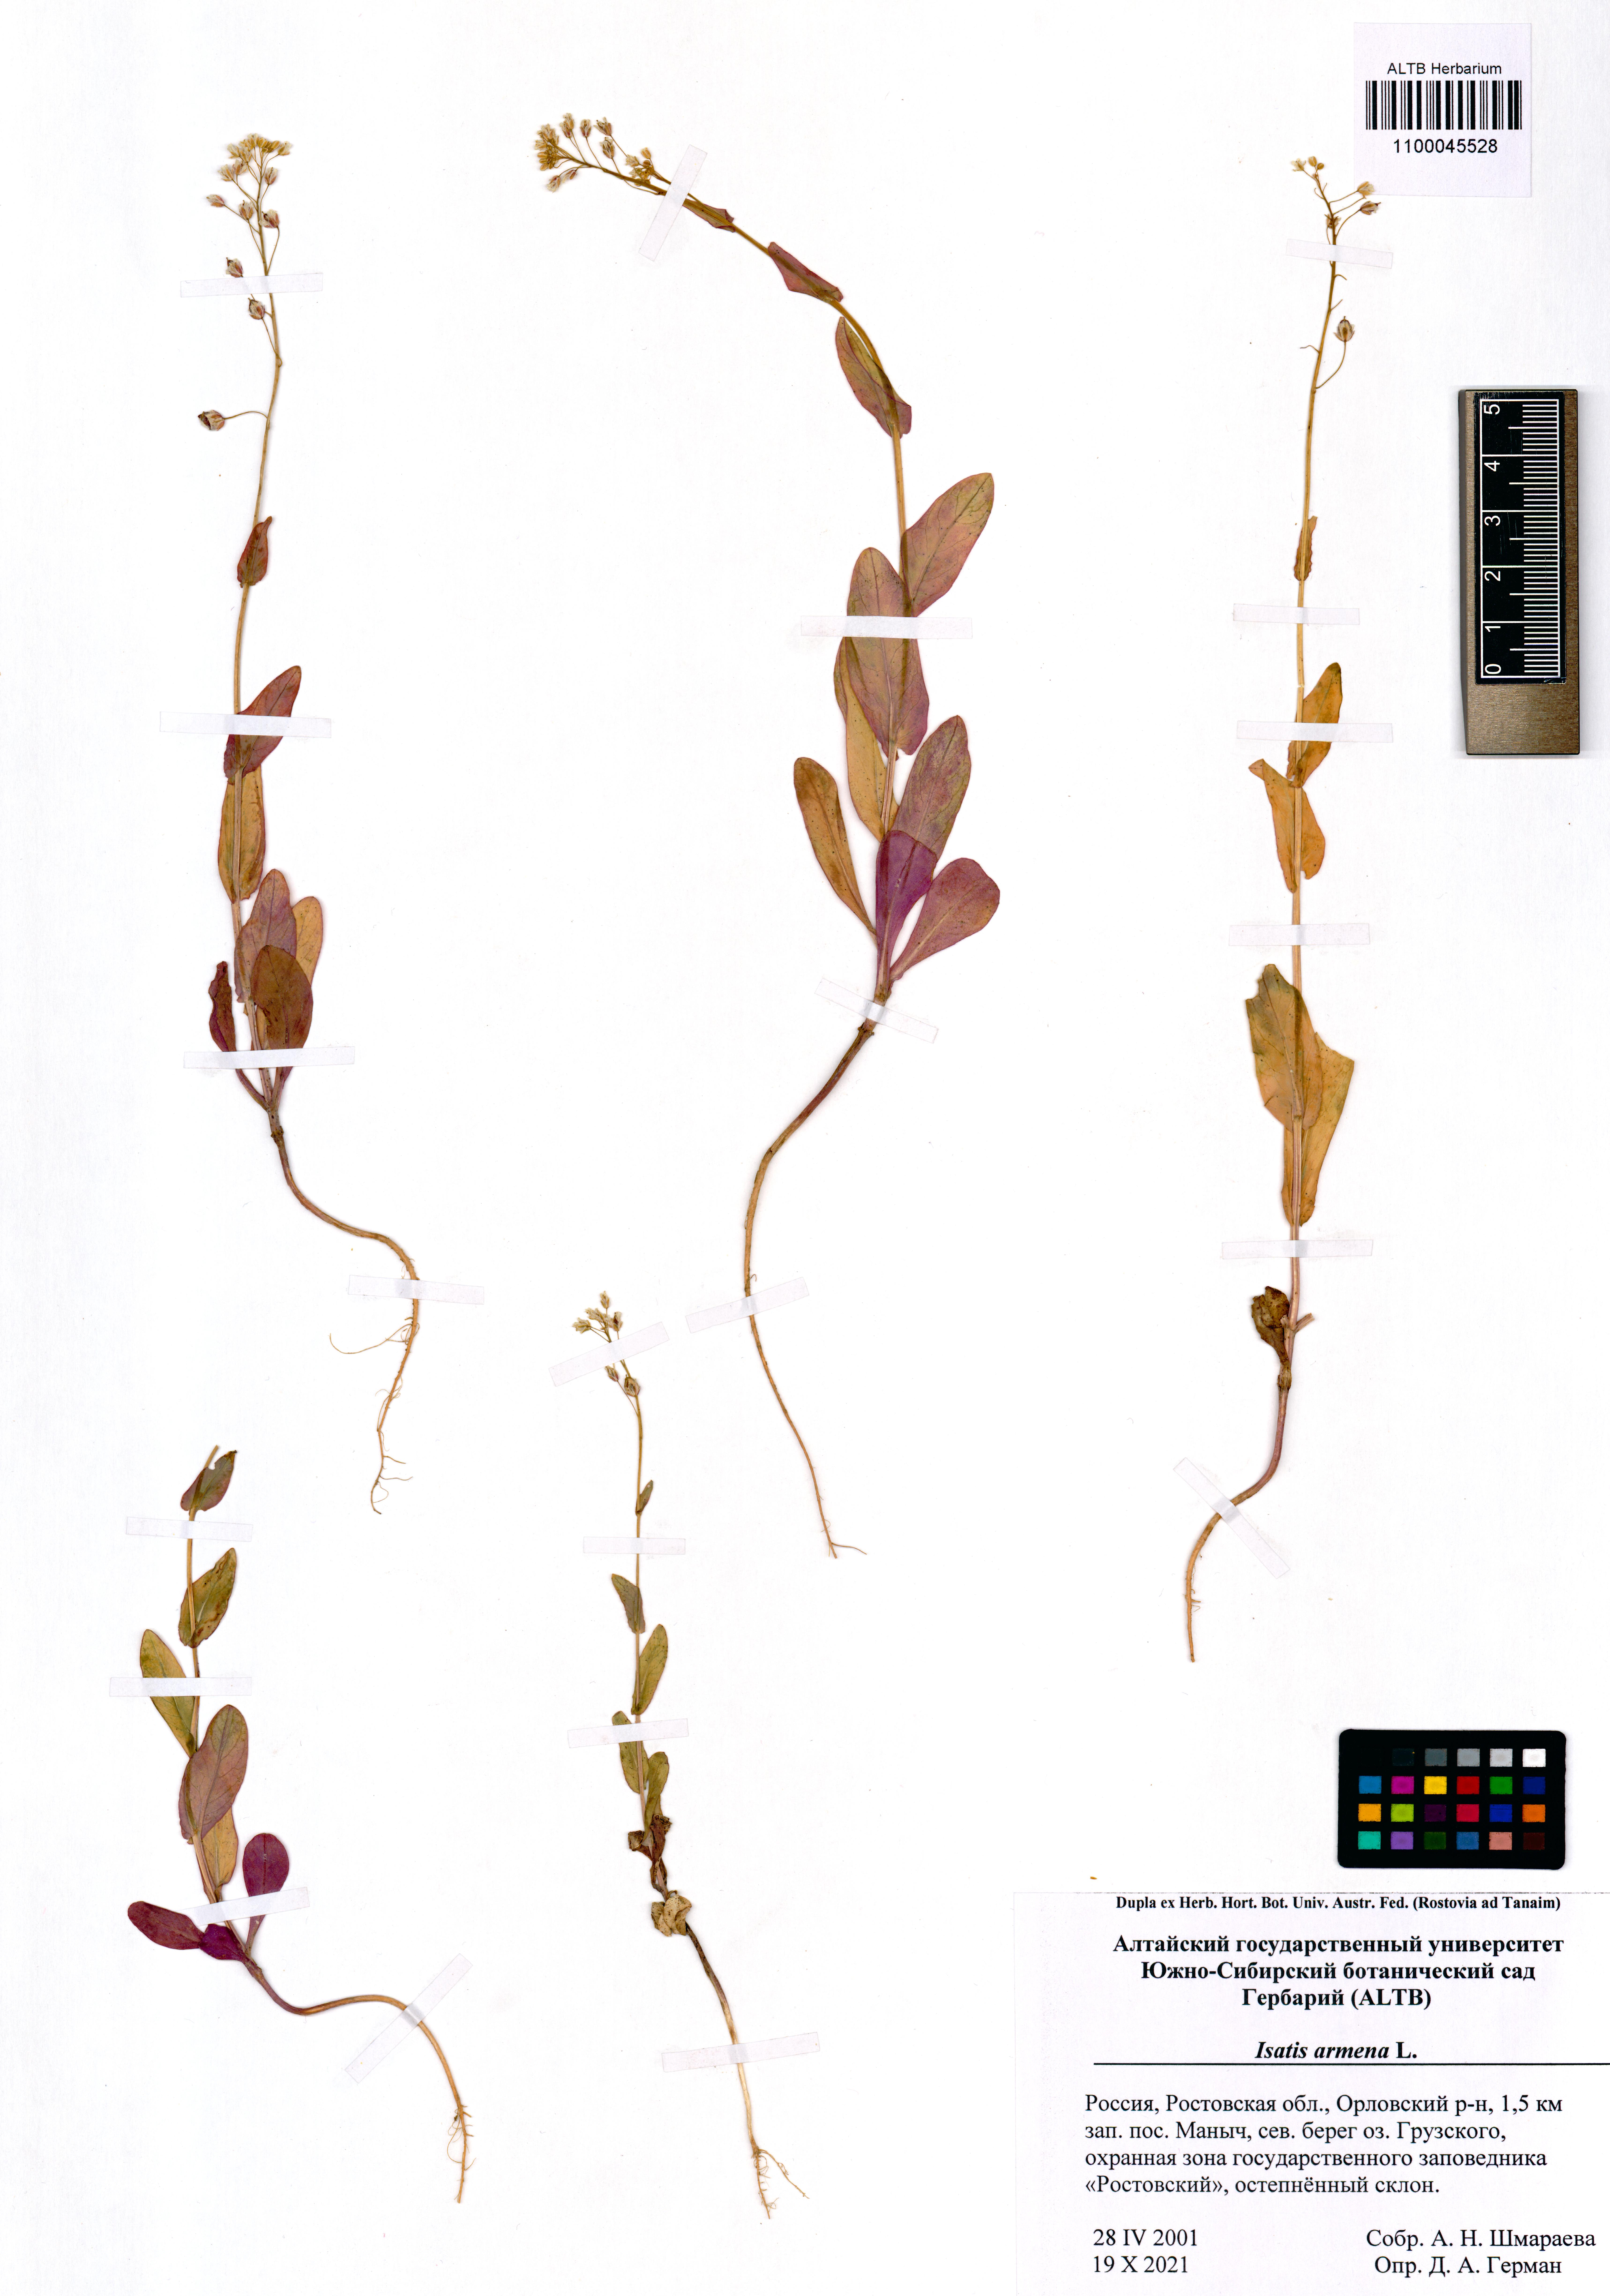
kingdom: Plantae
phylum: Tracheophyta
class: Magnoliopsida
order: Brassicales
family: Brassicaceae
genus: Isatis
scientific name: Isatis armena
